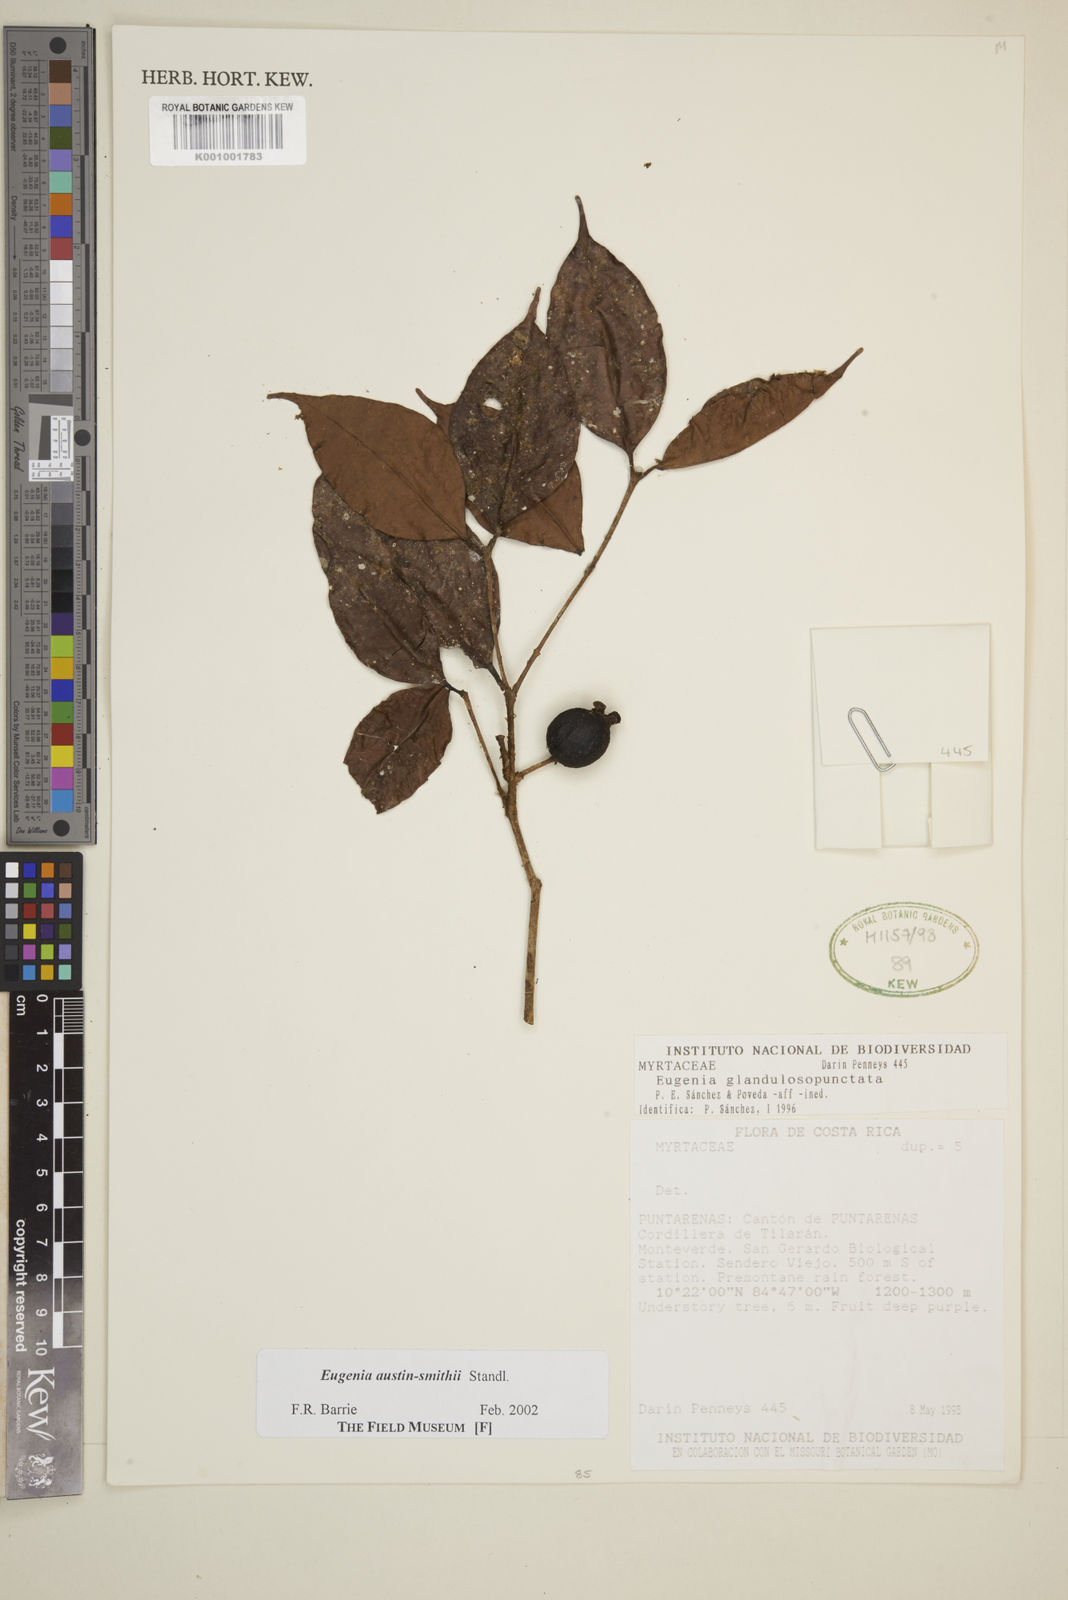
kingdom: Plantae
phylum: Tracheophyta
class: Magnoliopsida
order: Myrtales
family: Myrtaceae
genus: Eugenia
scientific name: Eugenia austin-smithii
